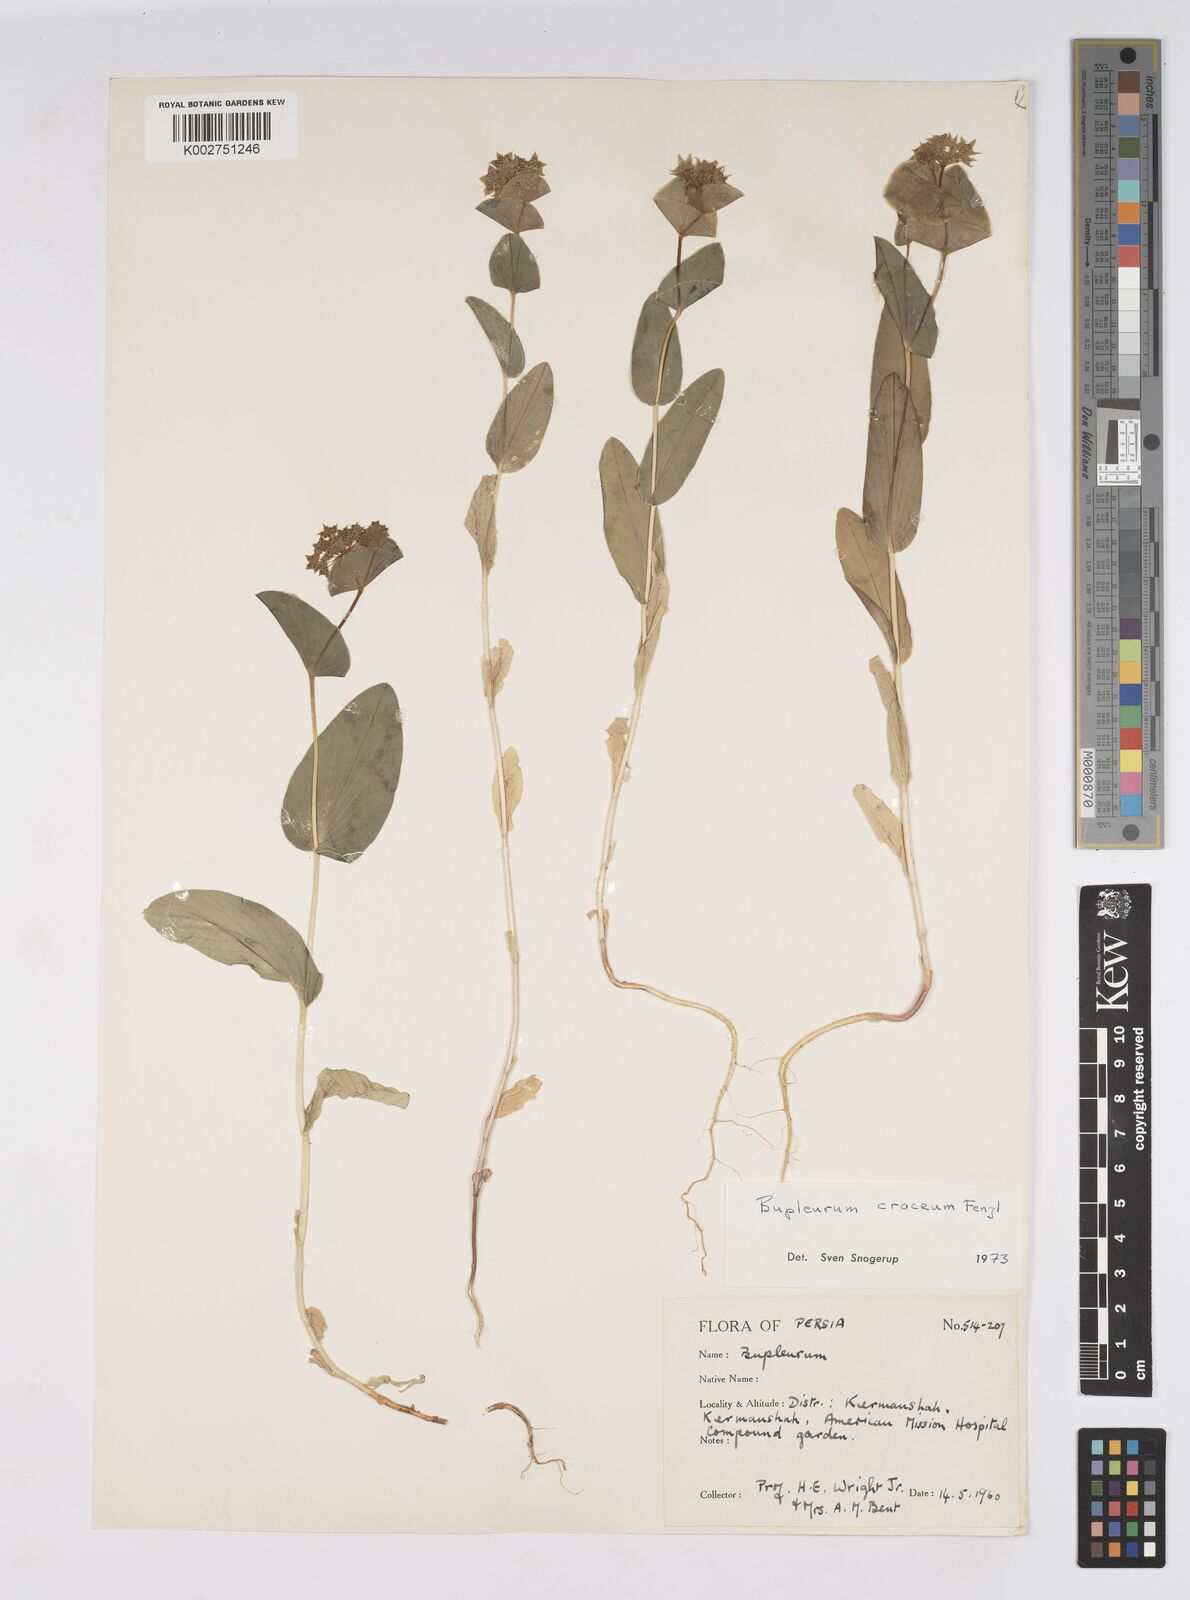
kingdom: Plantae
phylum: Tracheophyta
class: Magnoliopsida
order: Apiales
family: Apiaceae
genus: Bupleurum
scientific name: Bupleurum croceum
